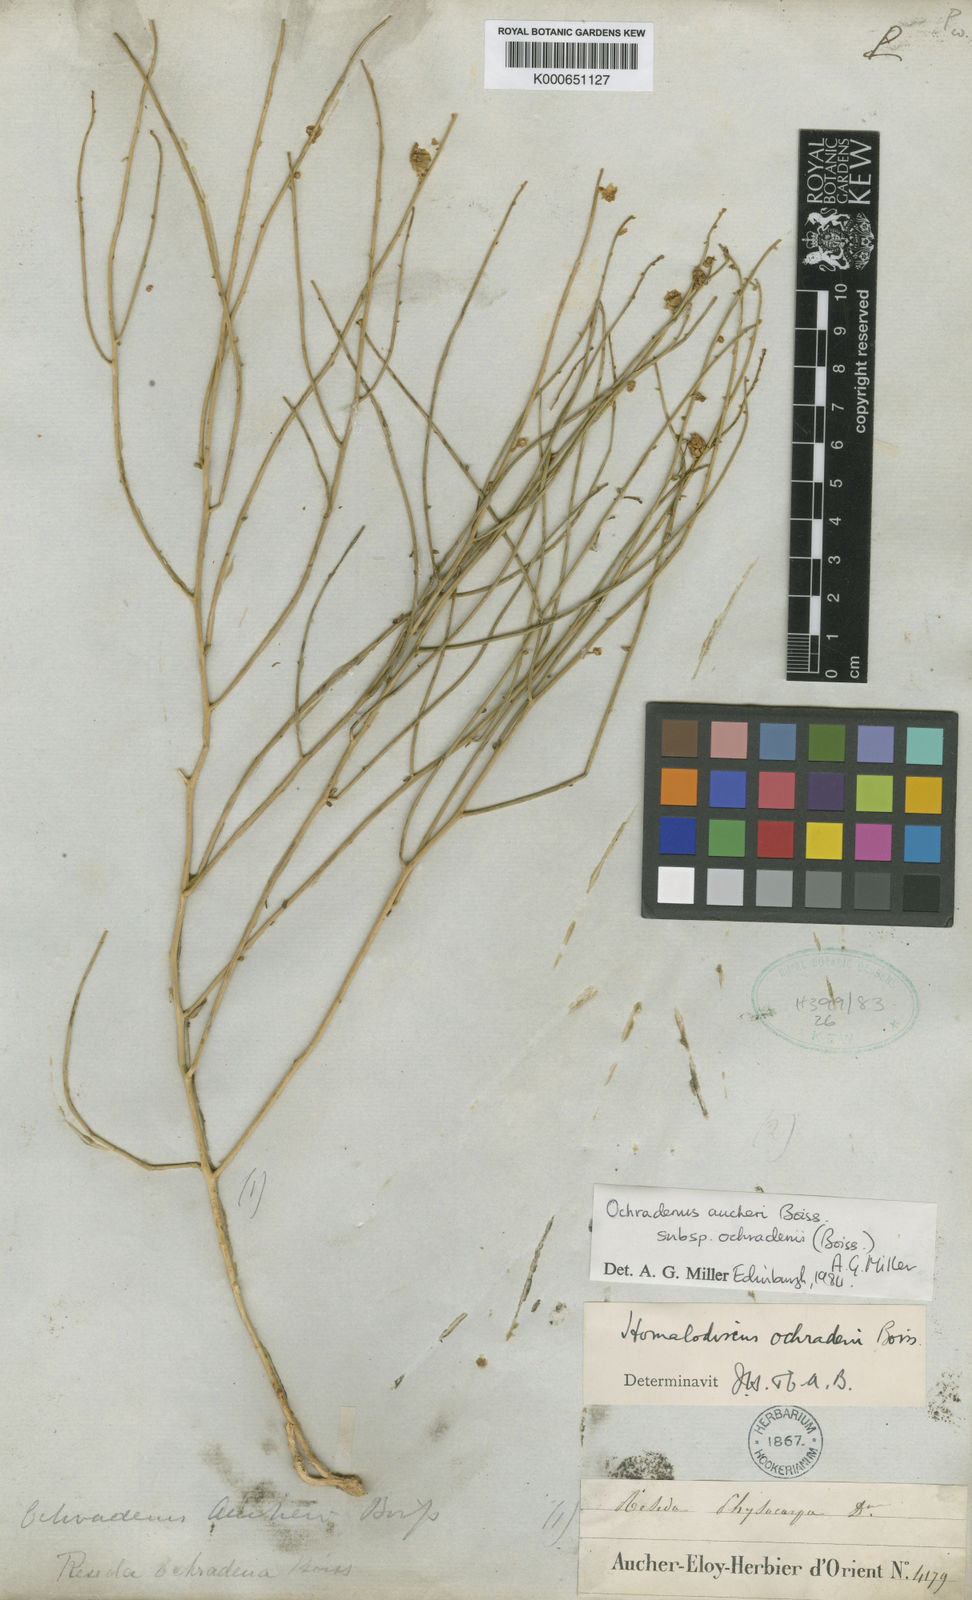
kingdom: Plantae
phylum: Tracheophyta
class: Magnoliopsida
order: Brassicales
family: Resedaceae
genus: Ochradiscus
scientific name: Ochradiscus aucheri
